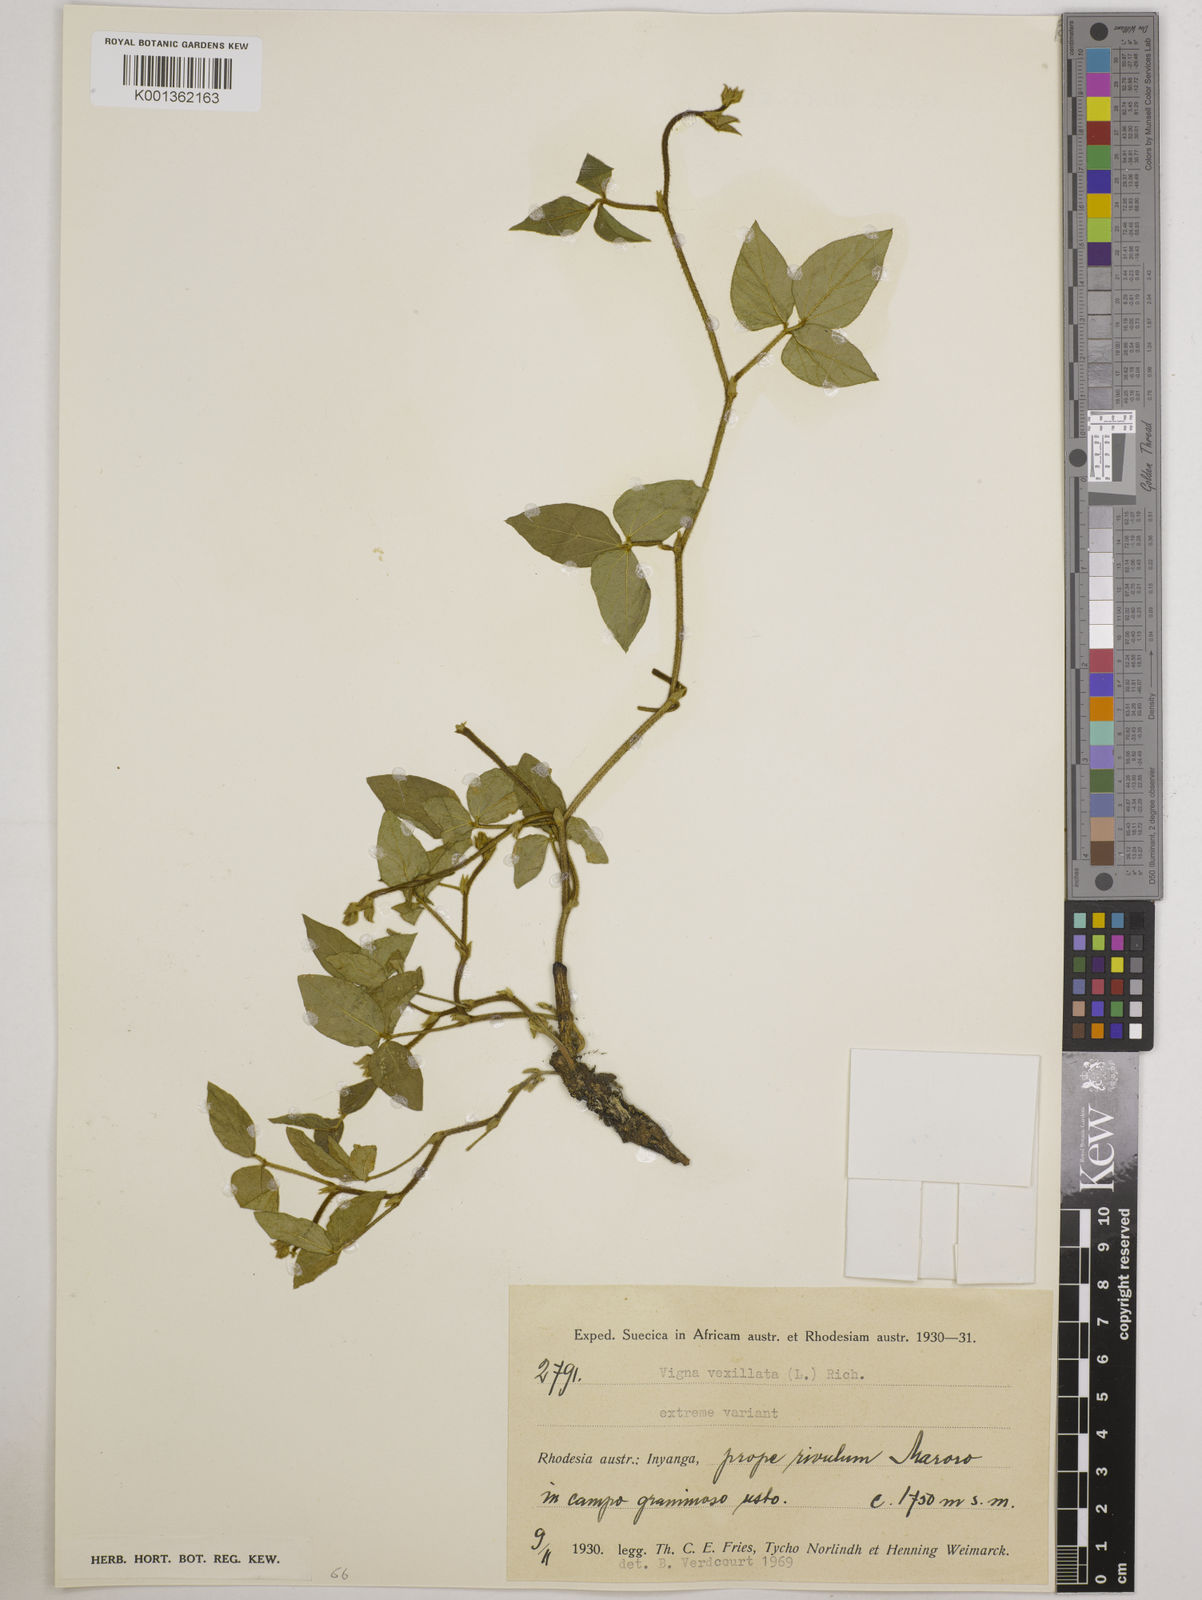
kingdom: Plantae
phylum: Tracheophyta
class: Magnoliopsida
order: Fabales
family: Fabaceae
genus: Vigna
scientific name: Vigna vexillata
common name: Zombi pea
